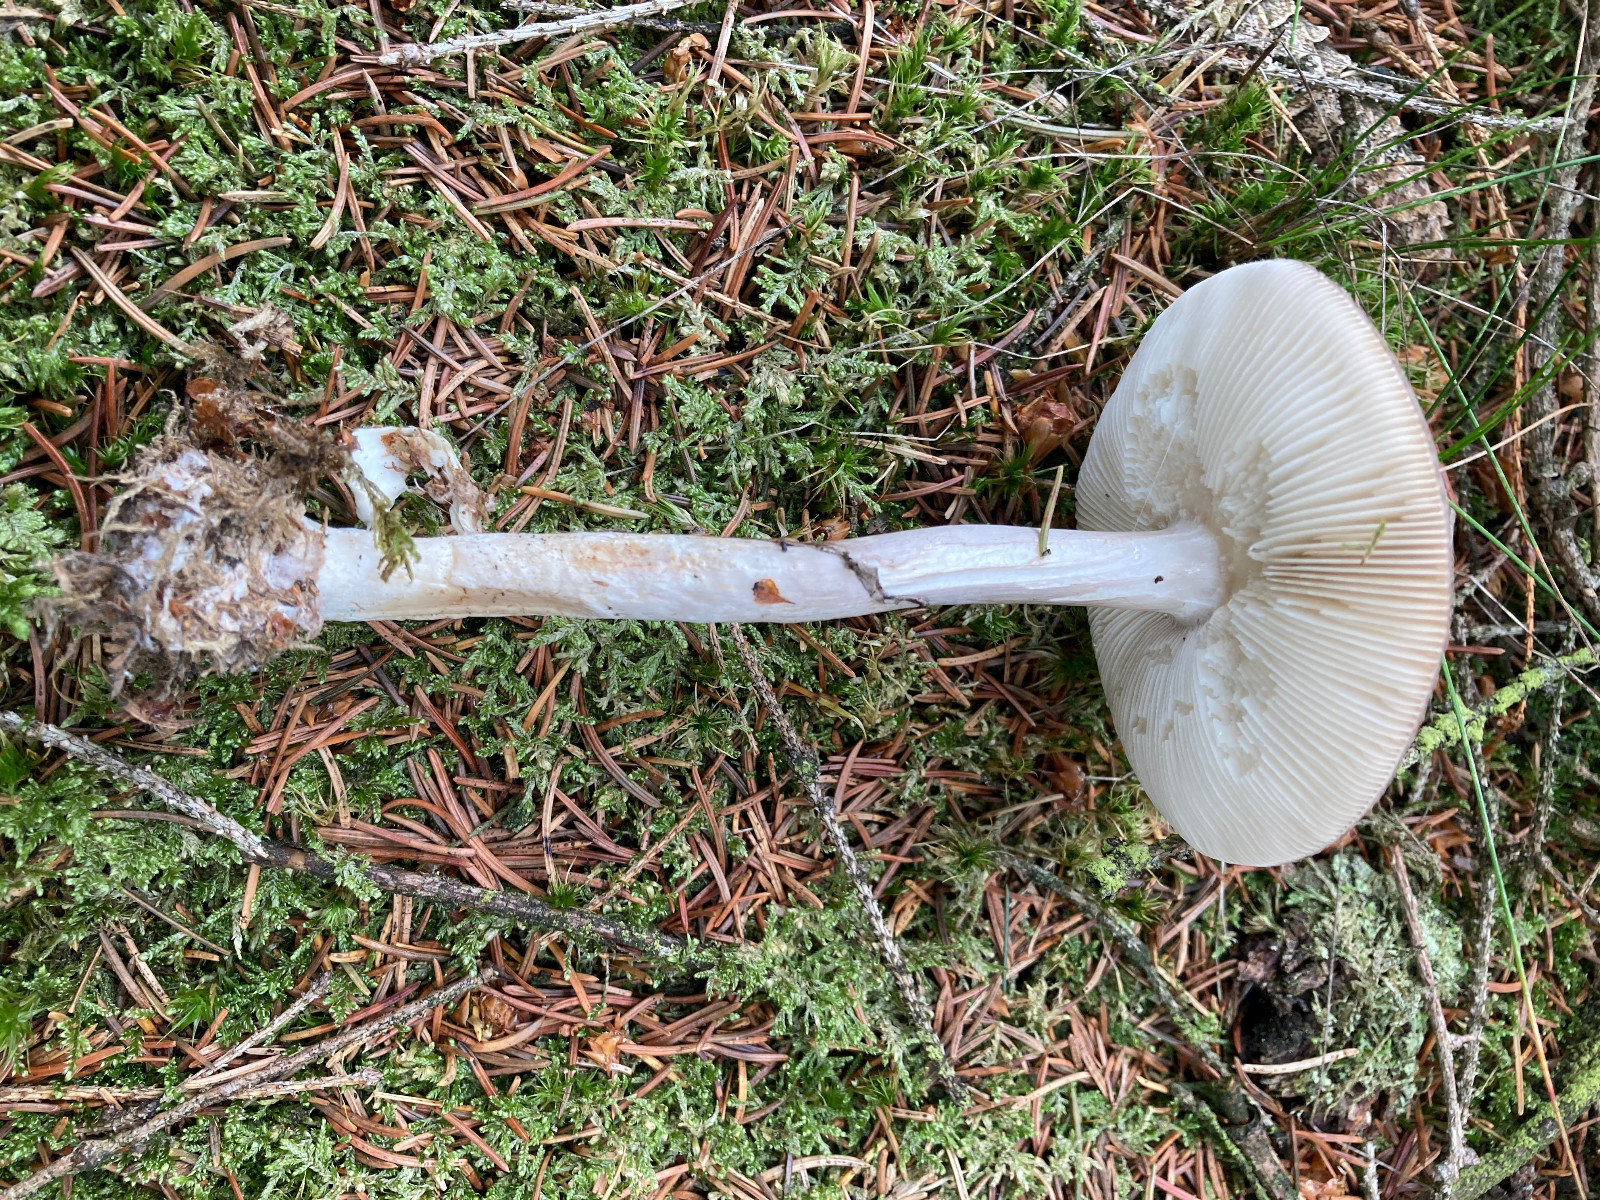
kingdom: Fungi
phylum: Basidiomycota
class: Agaricomycetes
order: Agaricales
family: Amanitaceae
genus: Amanita
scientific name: Amanita porphyria
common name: porfyr-fluesvamp
